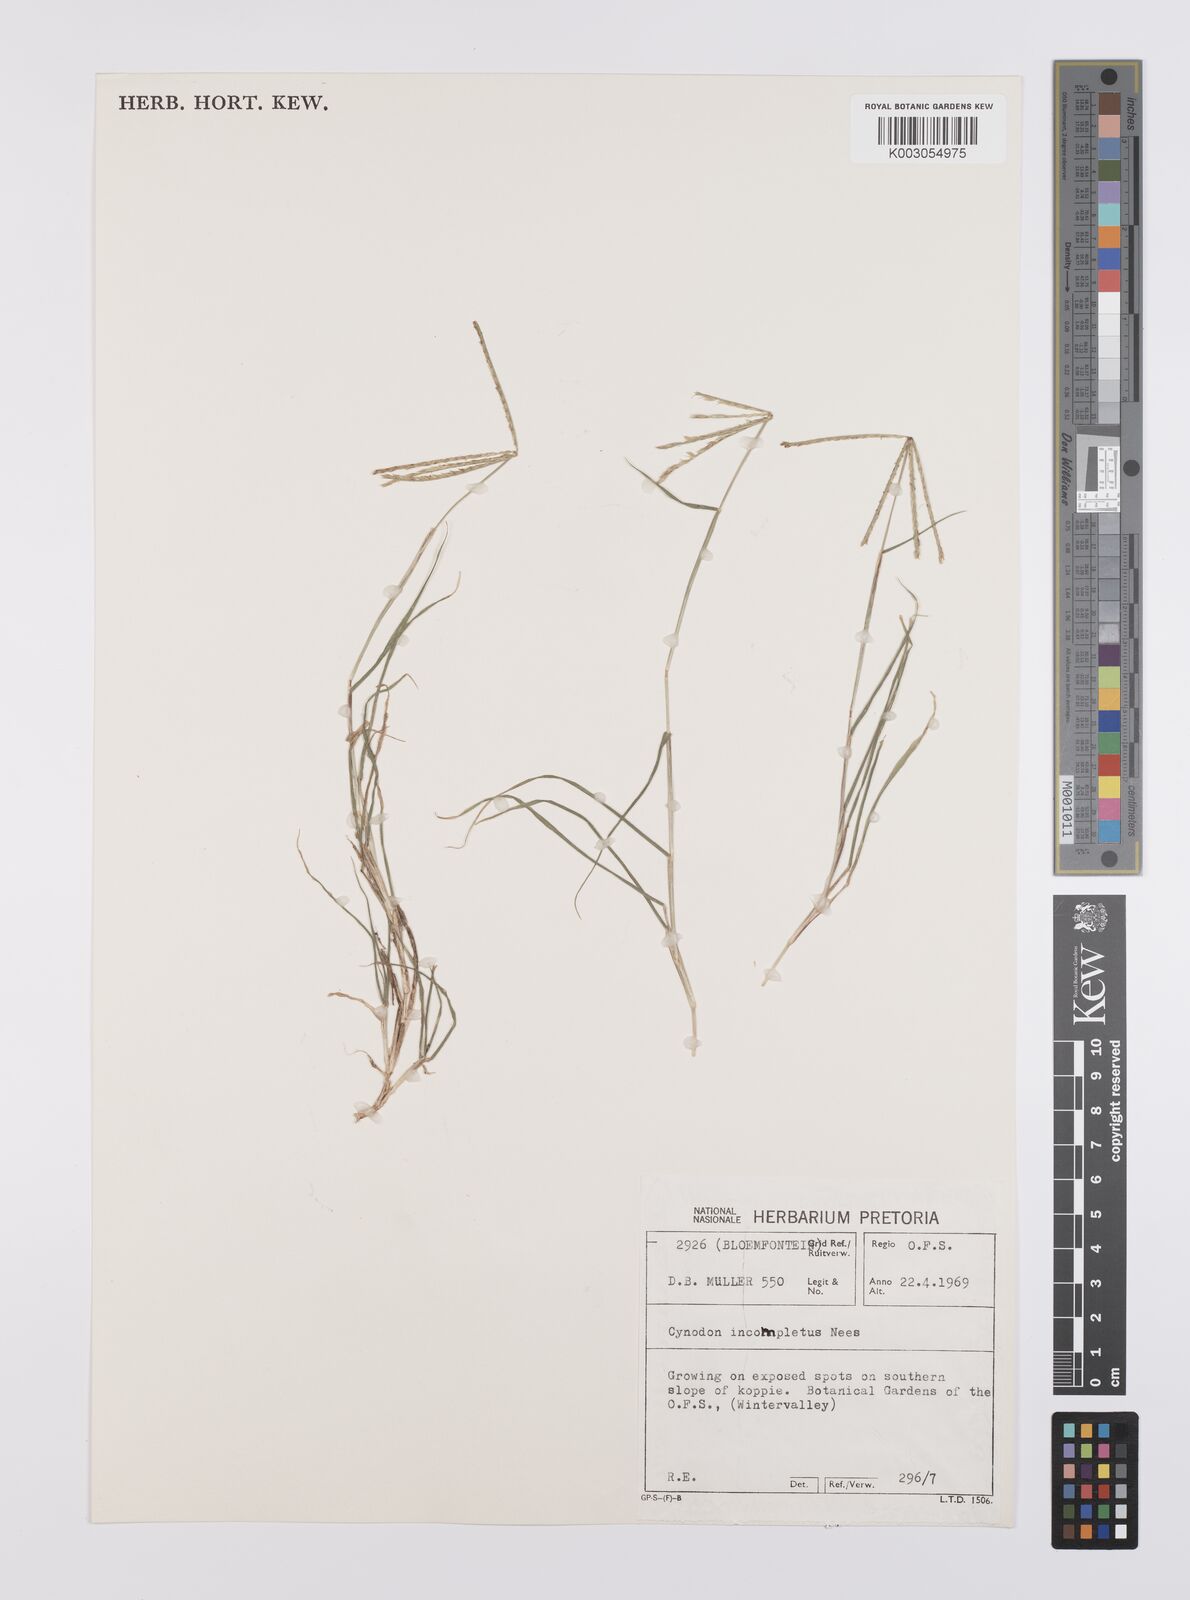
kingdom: Plantae
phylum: Tracheophyta
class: Liliopsida
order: Poales
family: Poaceae
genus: Cynodon
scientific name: Cynodon incompletus
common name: African bermuda-grass
